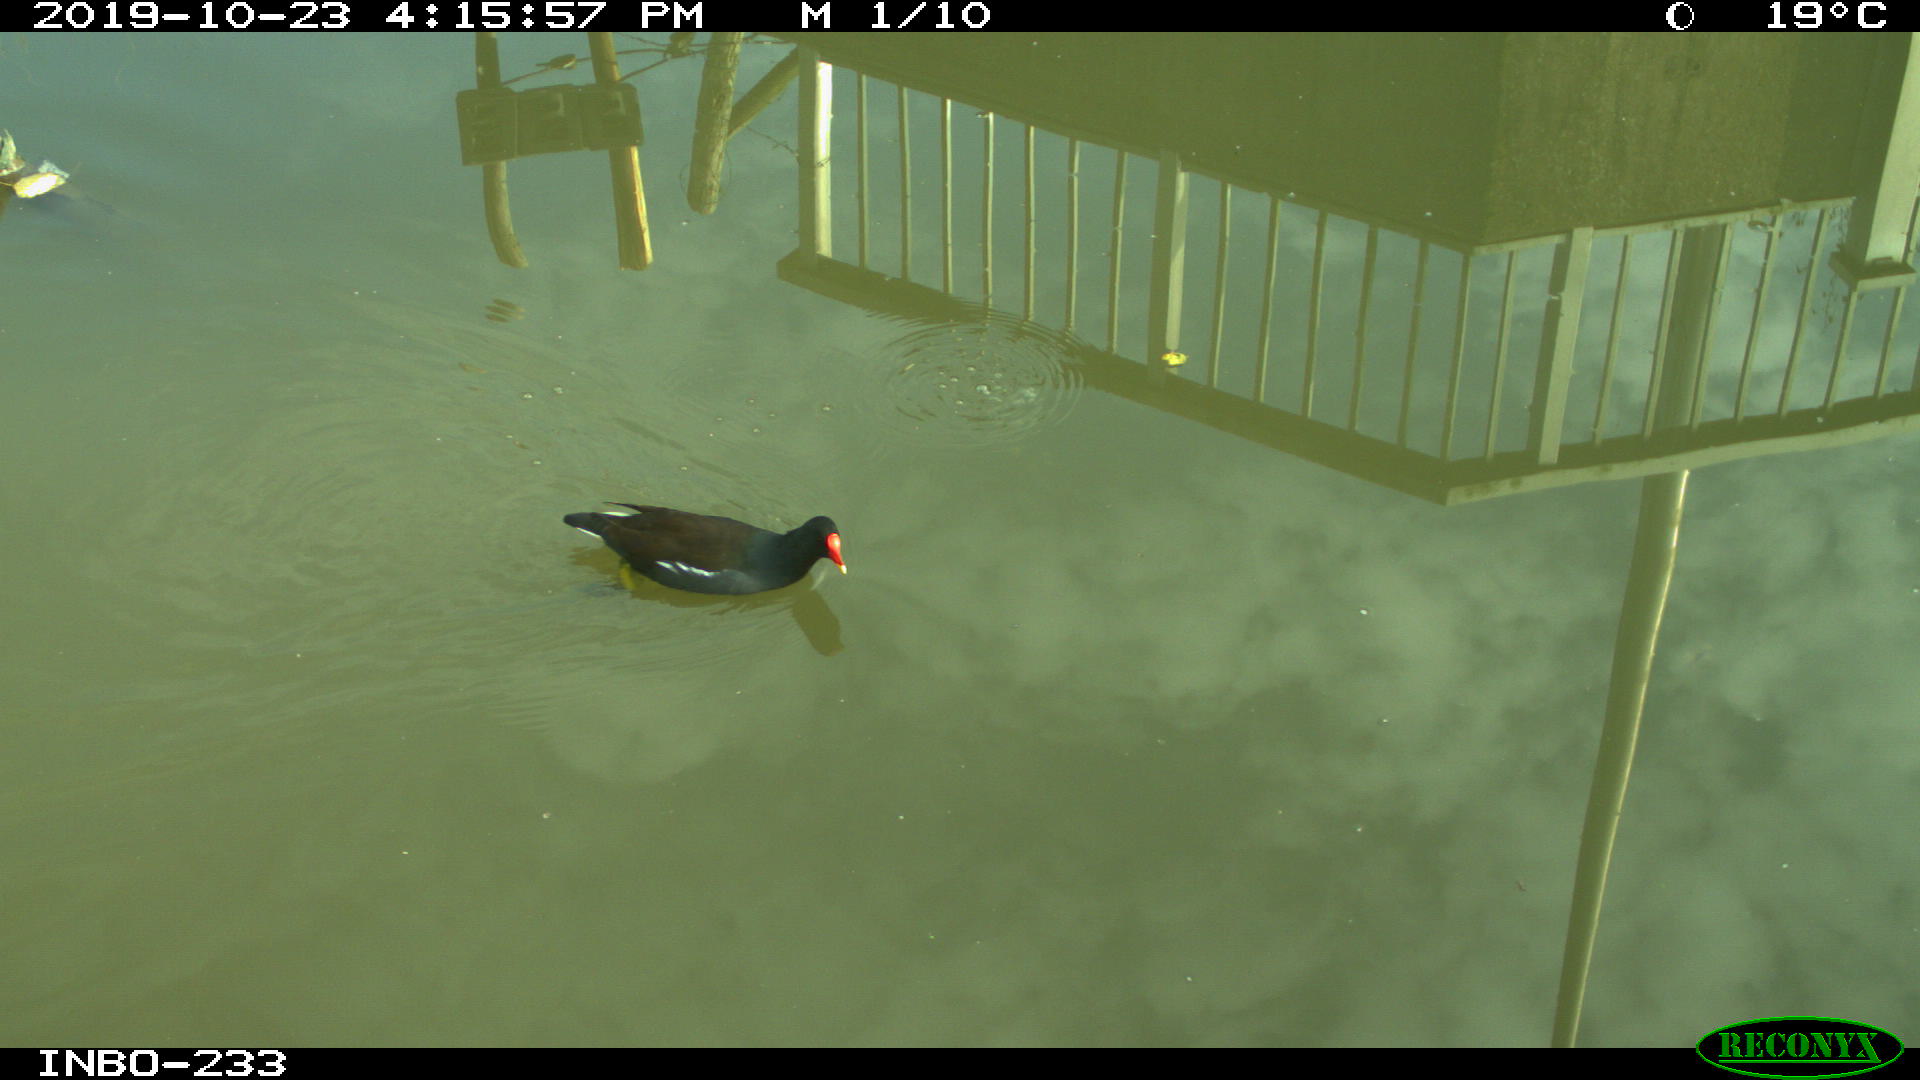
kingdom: Animalia
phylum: Chordata
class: Aves
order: Gruiformes
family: Rallidae
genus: Gallinula
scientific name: Gallinula chloropus
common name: Common moorhen
